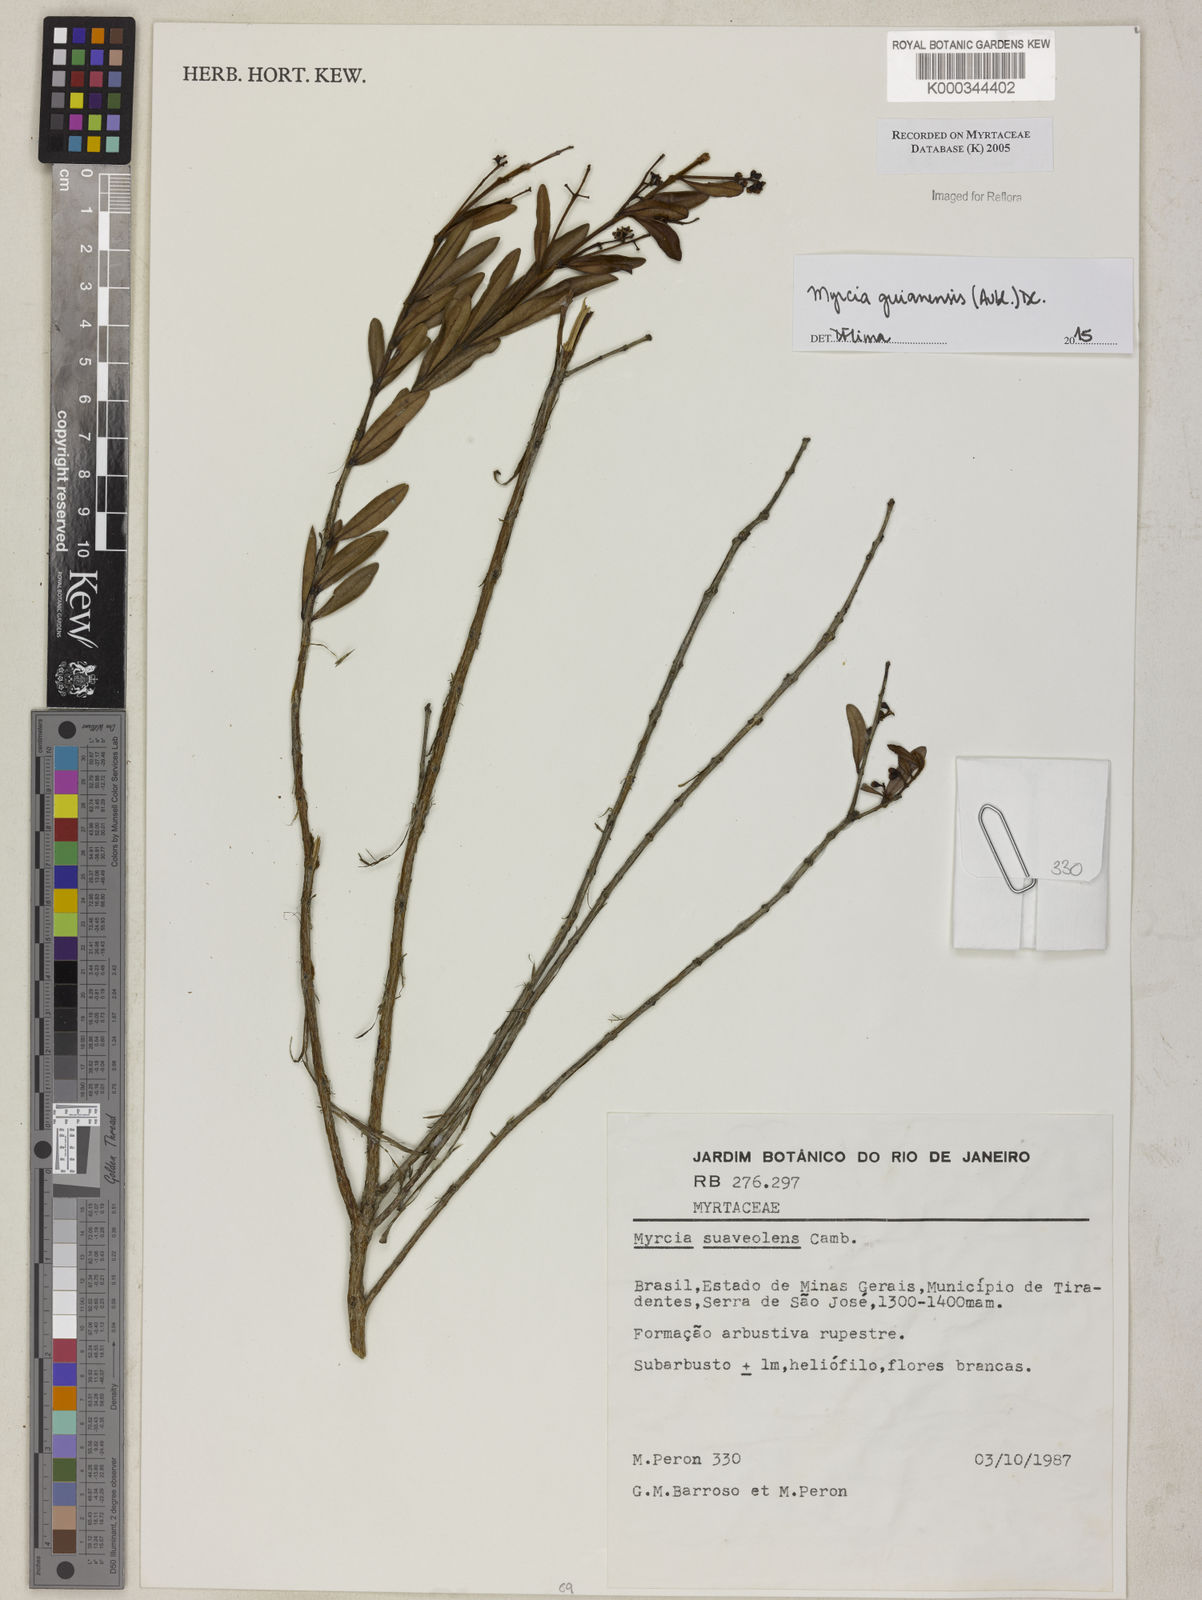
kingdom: Plantae
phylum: Tracheophyta
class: Magnoliopsida
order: Myrtales
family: Myrtaceae
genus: Myrcia
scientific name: Myrcia guianensis
